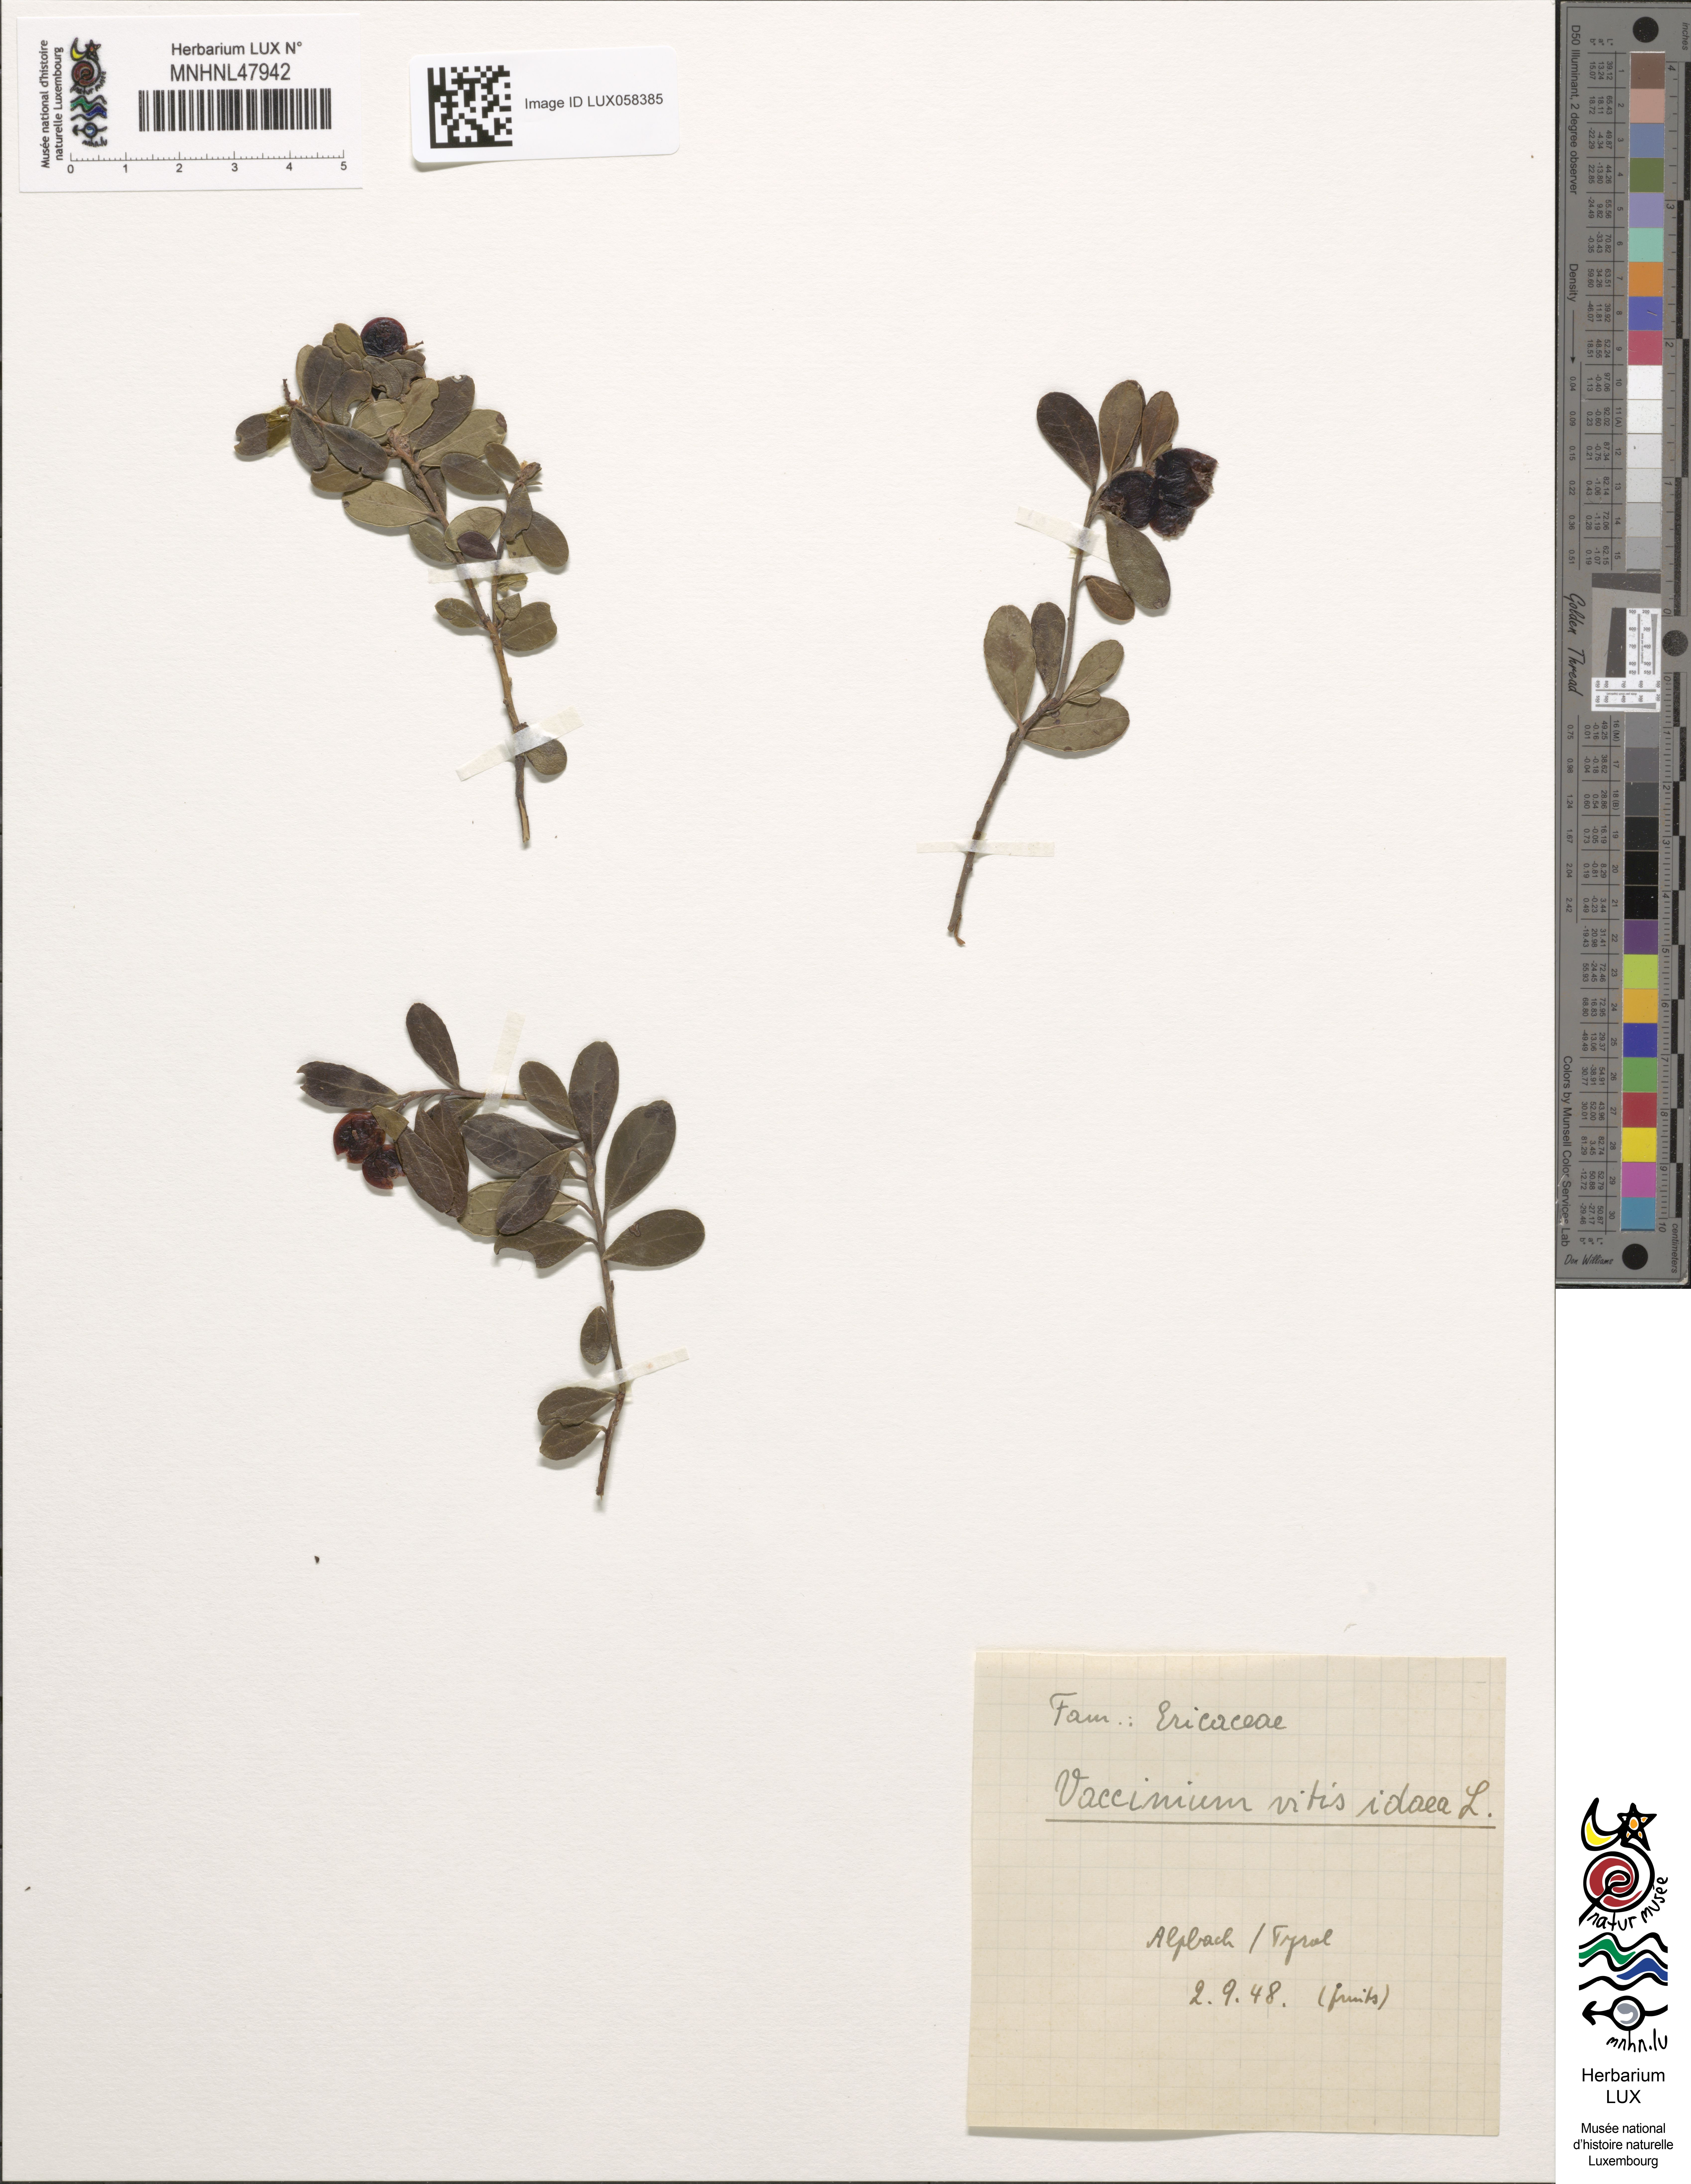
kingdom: Plantae
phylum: Tracheophyta
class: Magnoliopsida
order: Ericales
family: Ericaceae
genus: Vaccinium
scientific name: Vaccinium vitis-idaea
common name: Cowberry
